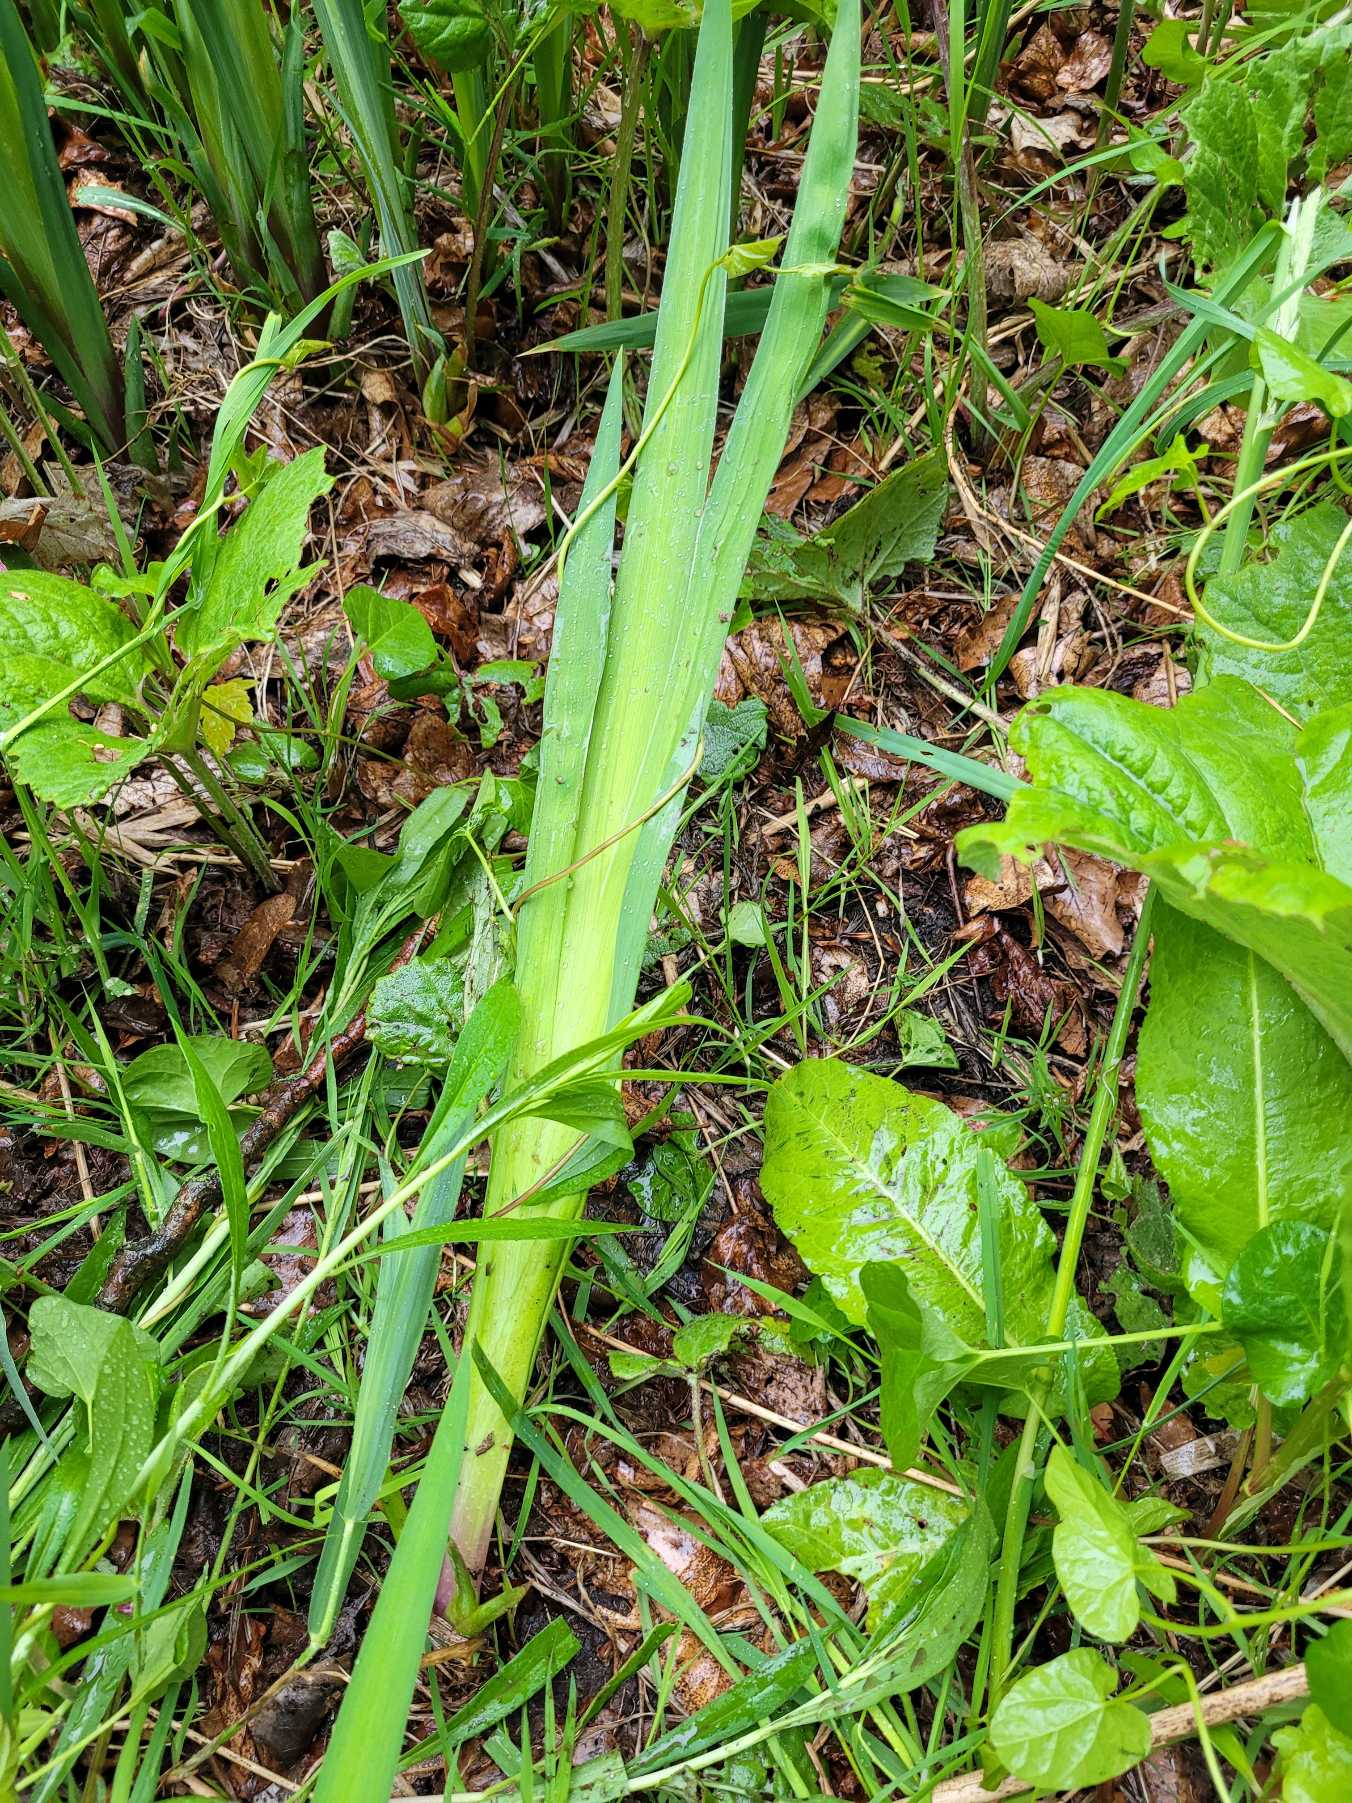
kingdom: Plantae
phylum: Tracheophyta
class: Liliopsida
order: Asparagales
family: Iridaceae
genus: Iris
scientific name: Iris pseudacorus
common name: Gul iris
